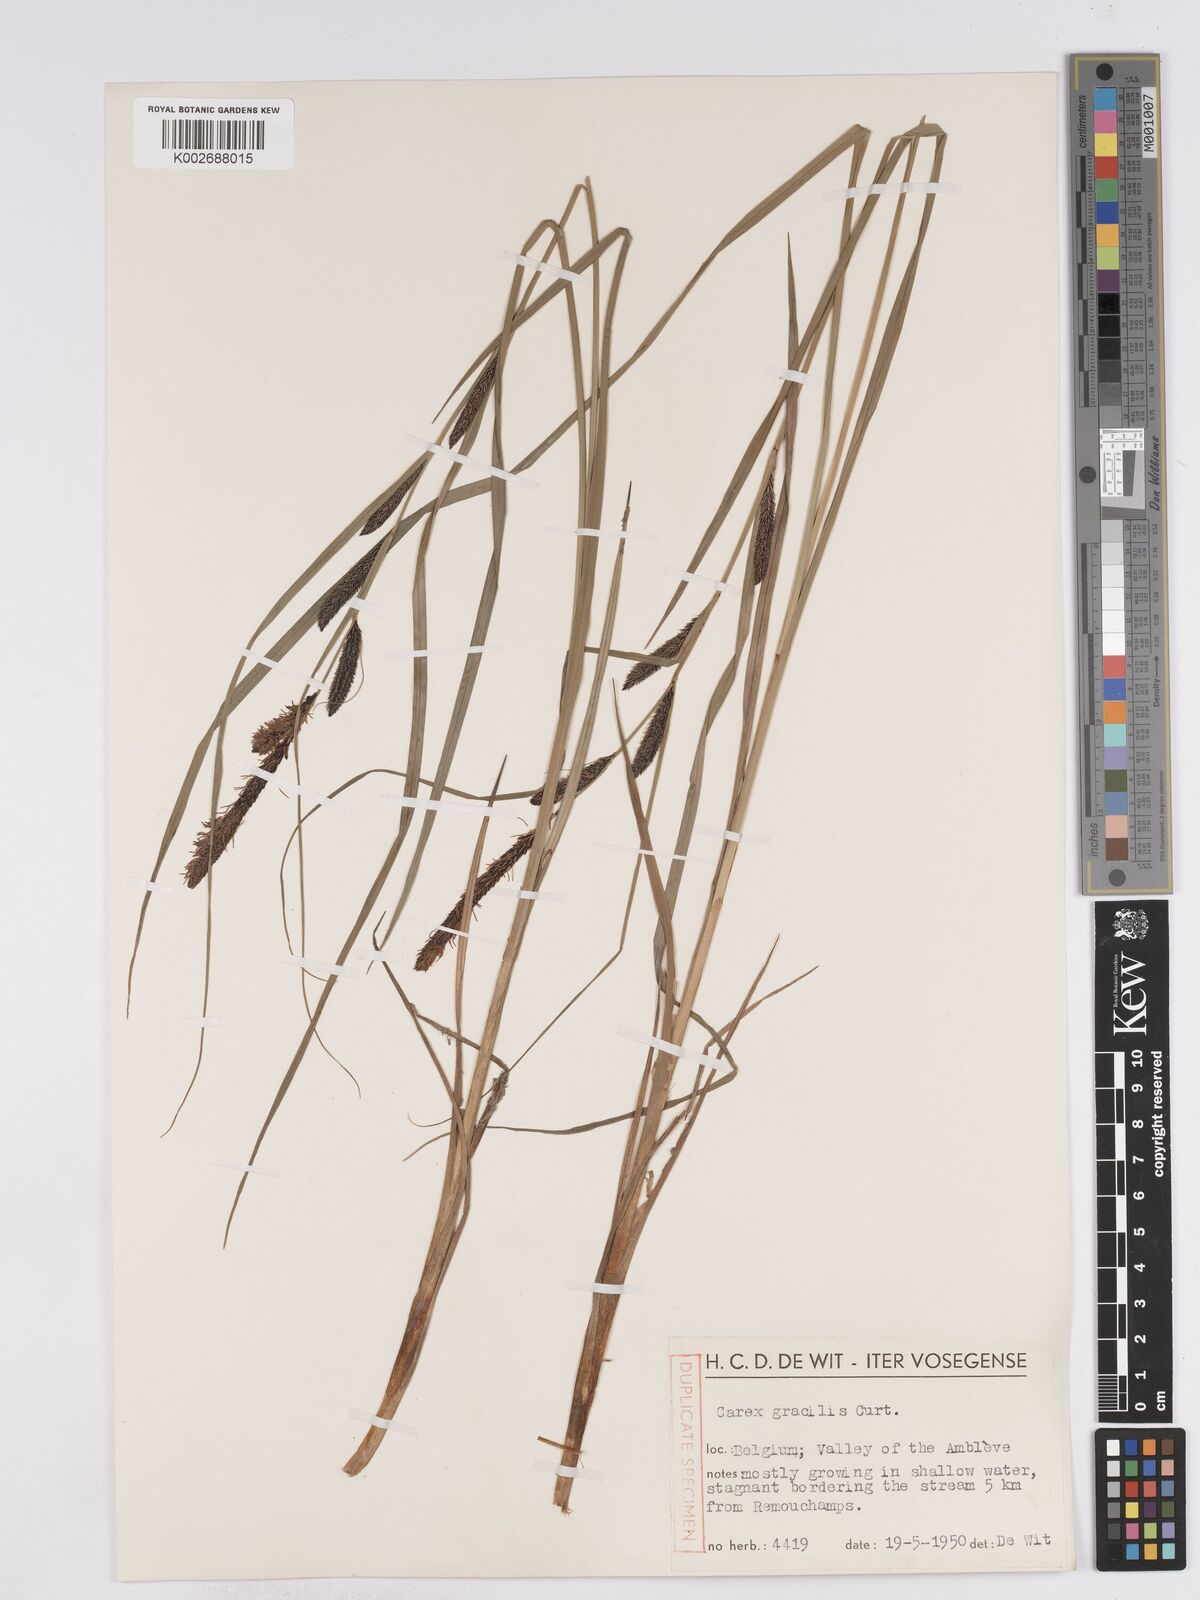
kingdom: Plantae
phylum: Tracheophyta
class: Liliopsida
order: Poales
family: Cyperaceae
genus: Carex
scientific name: Carex acuta
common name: Slender tufted-sedge
